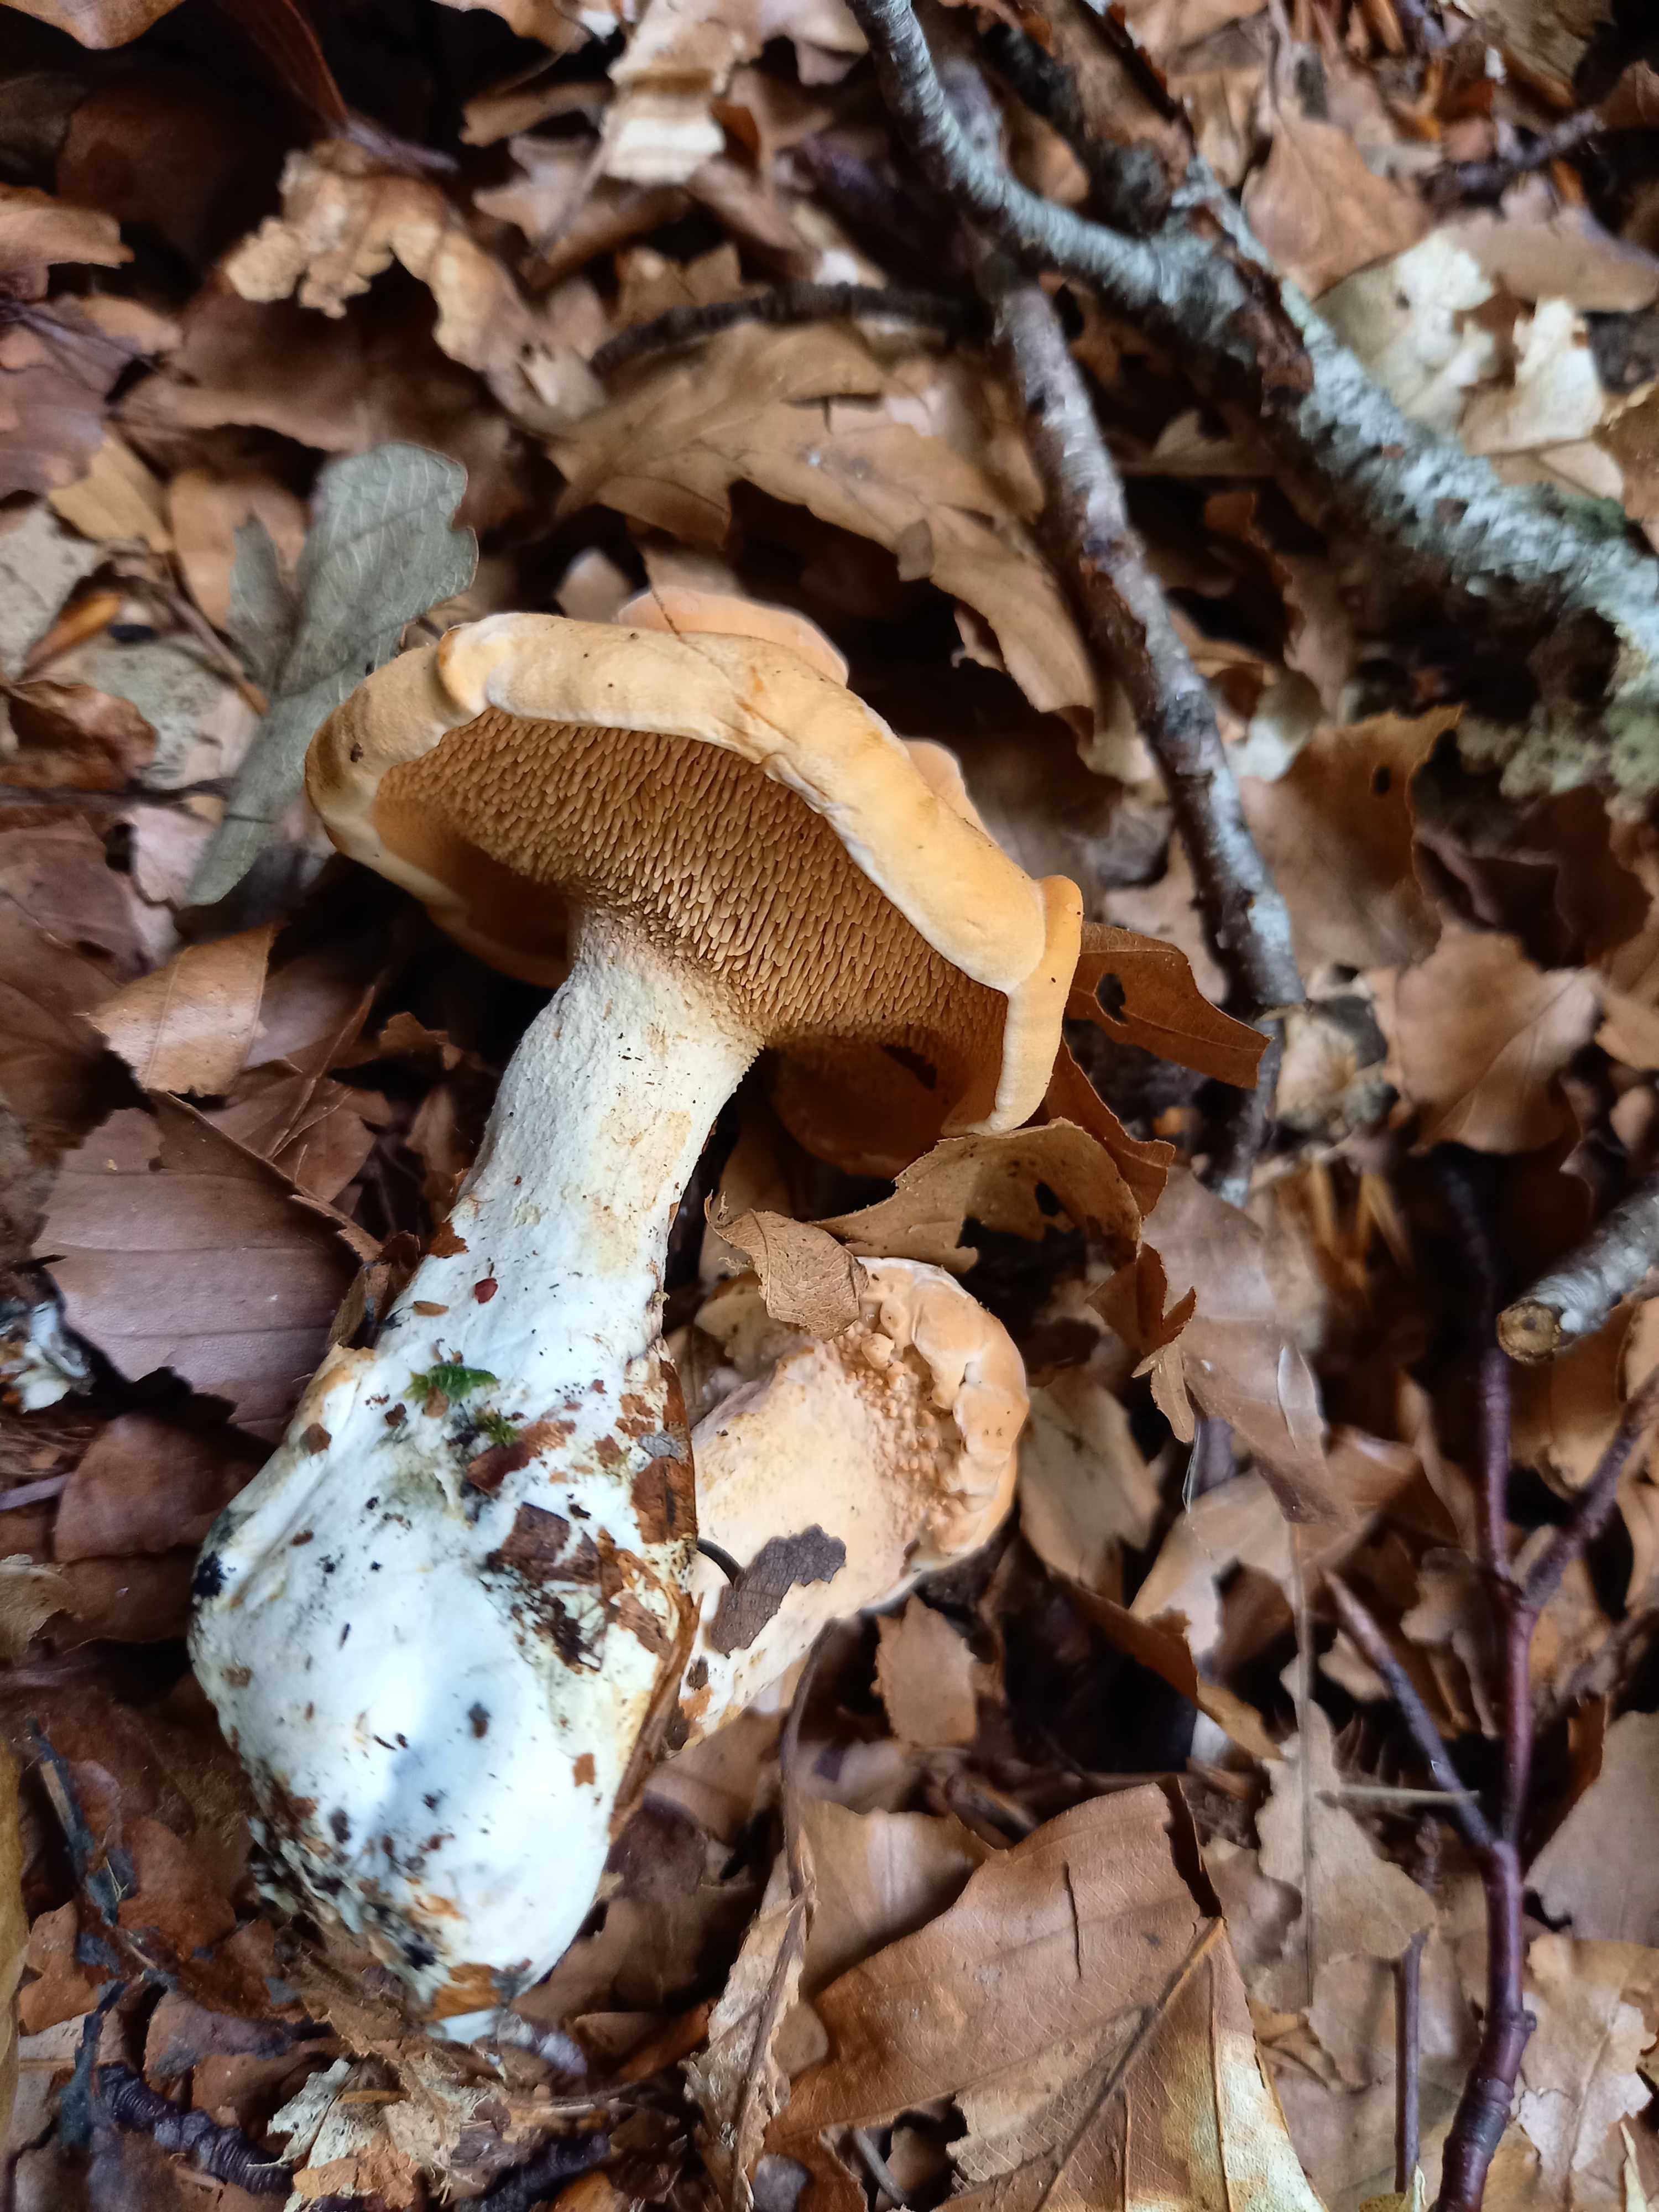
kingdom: Fungi
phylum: Basidiomycota
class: Agaricomycetes
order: Cantharellales
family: Hydnaceae
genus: Hydnum
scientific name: Hydnum
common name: pigsvamp
